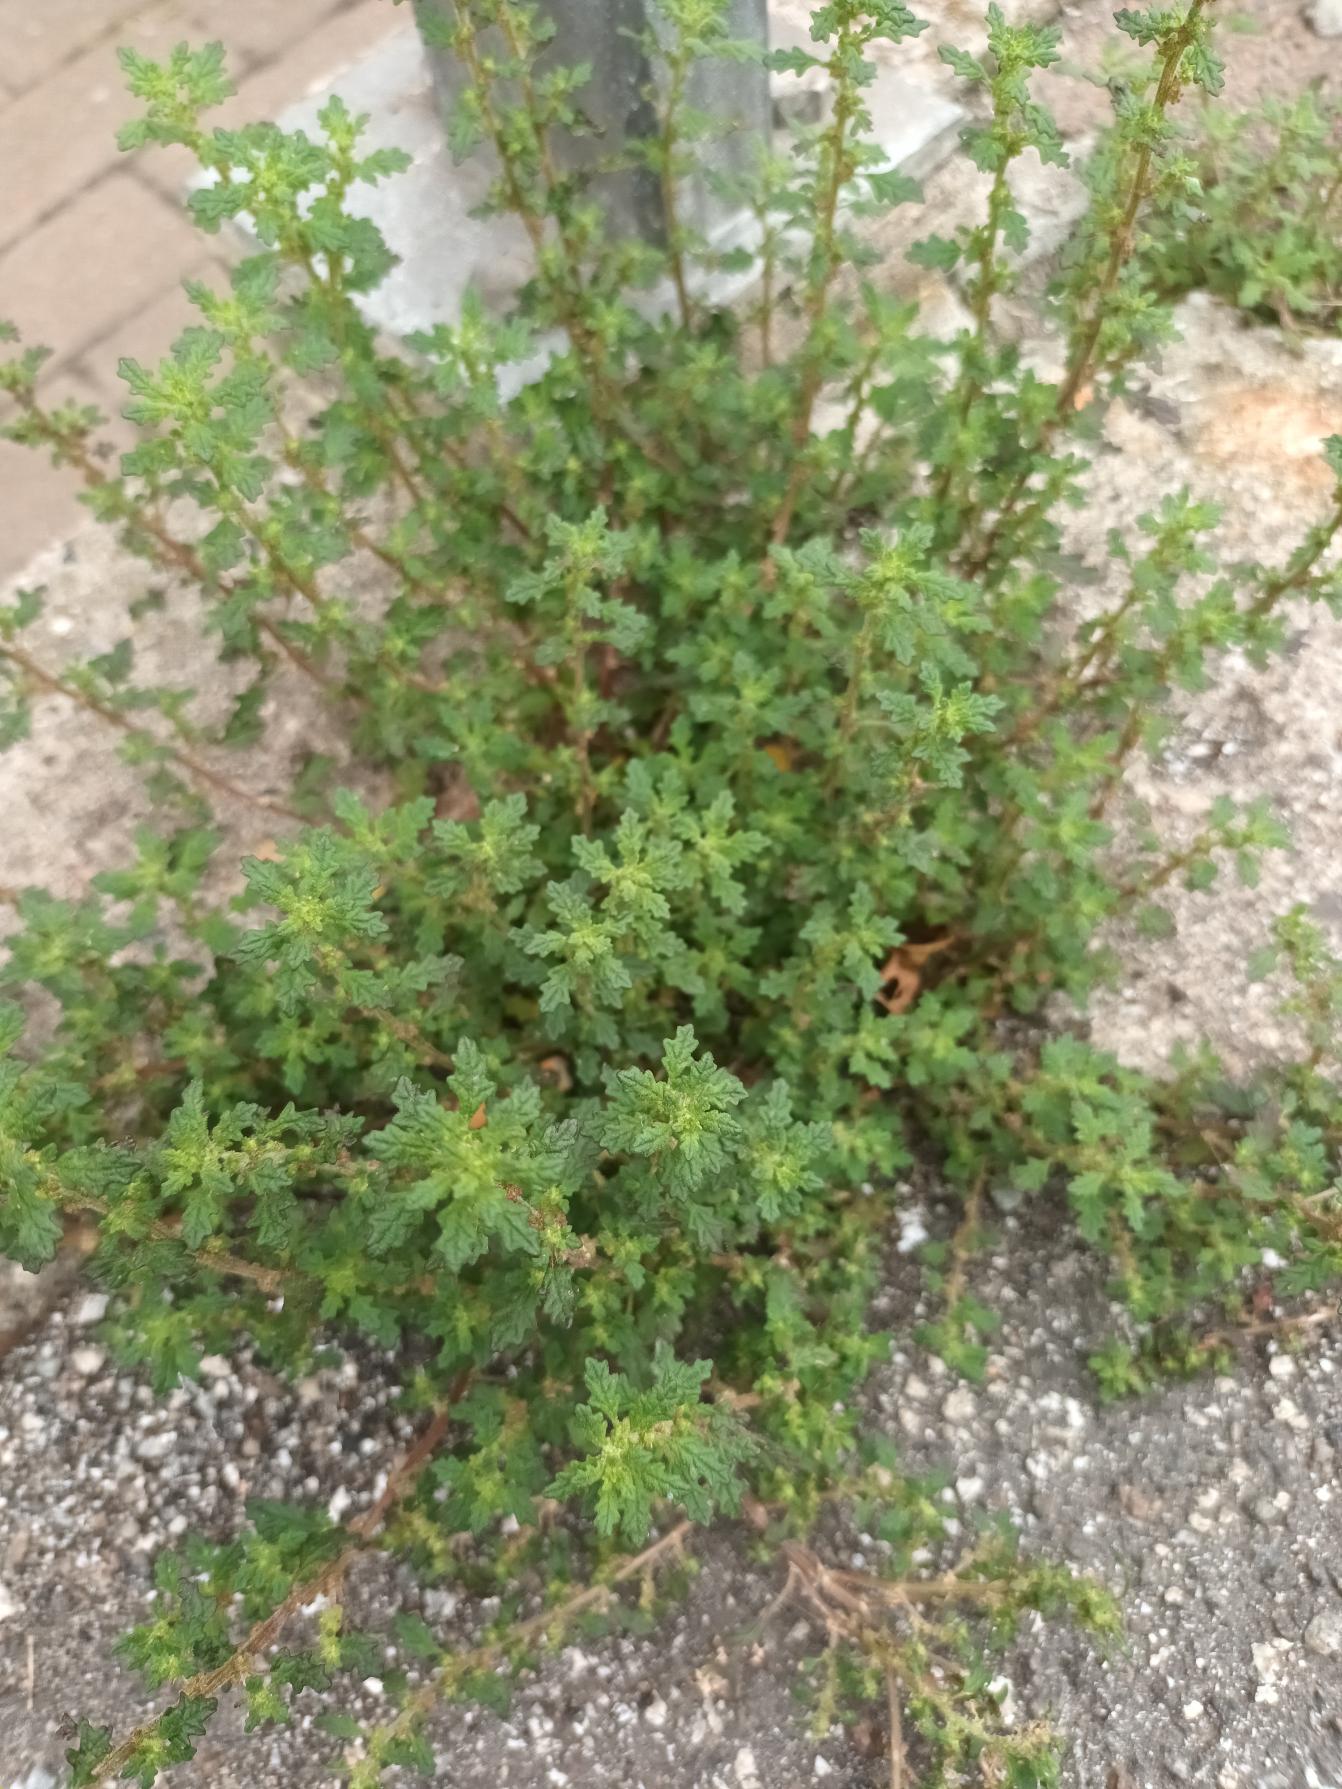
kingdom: Plantae
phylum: Tracheophyta
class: Magnoliopsida
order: Caryophyllales
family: Amaranthaceae
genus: Dysphania
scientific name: Dysphania pumilio
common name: Dværg-gåsefod
